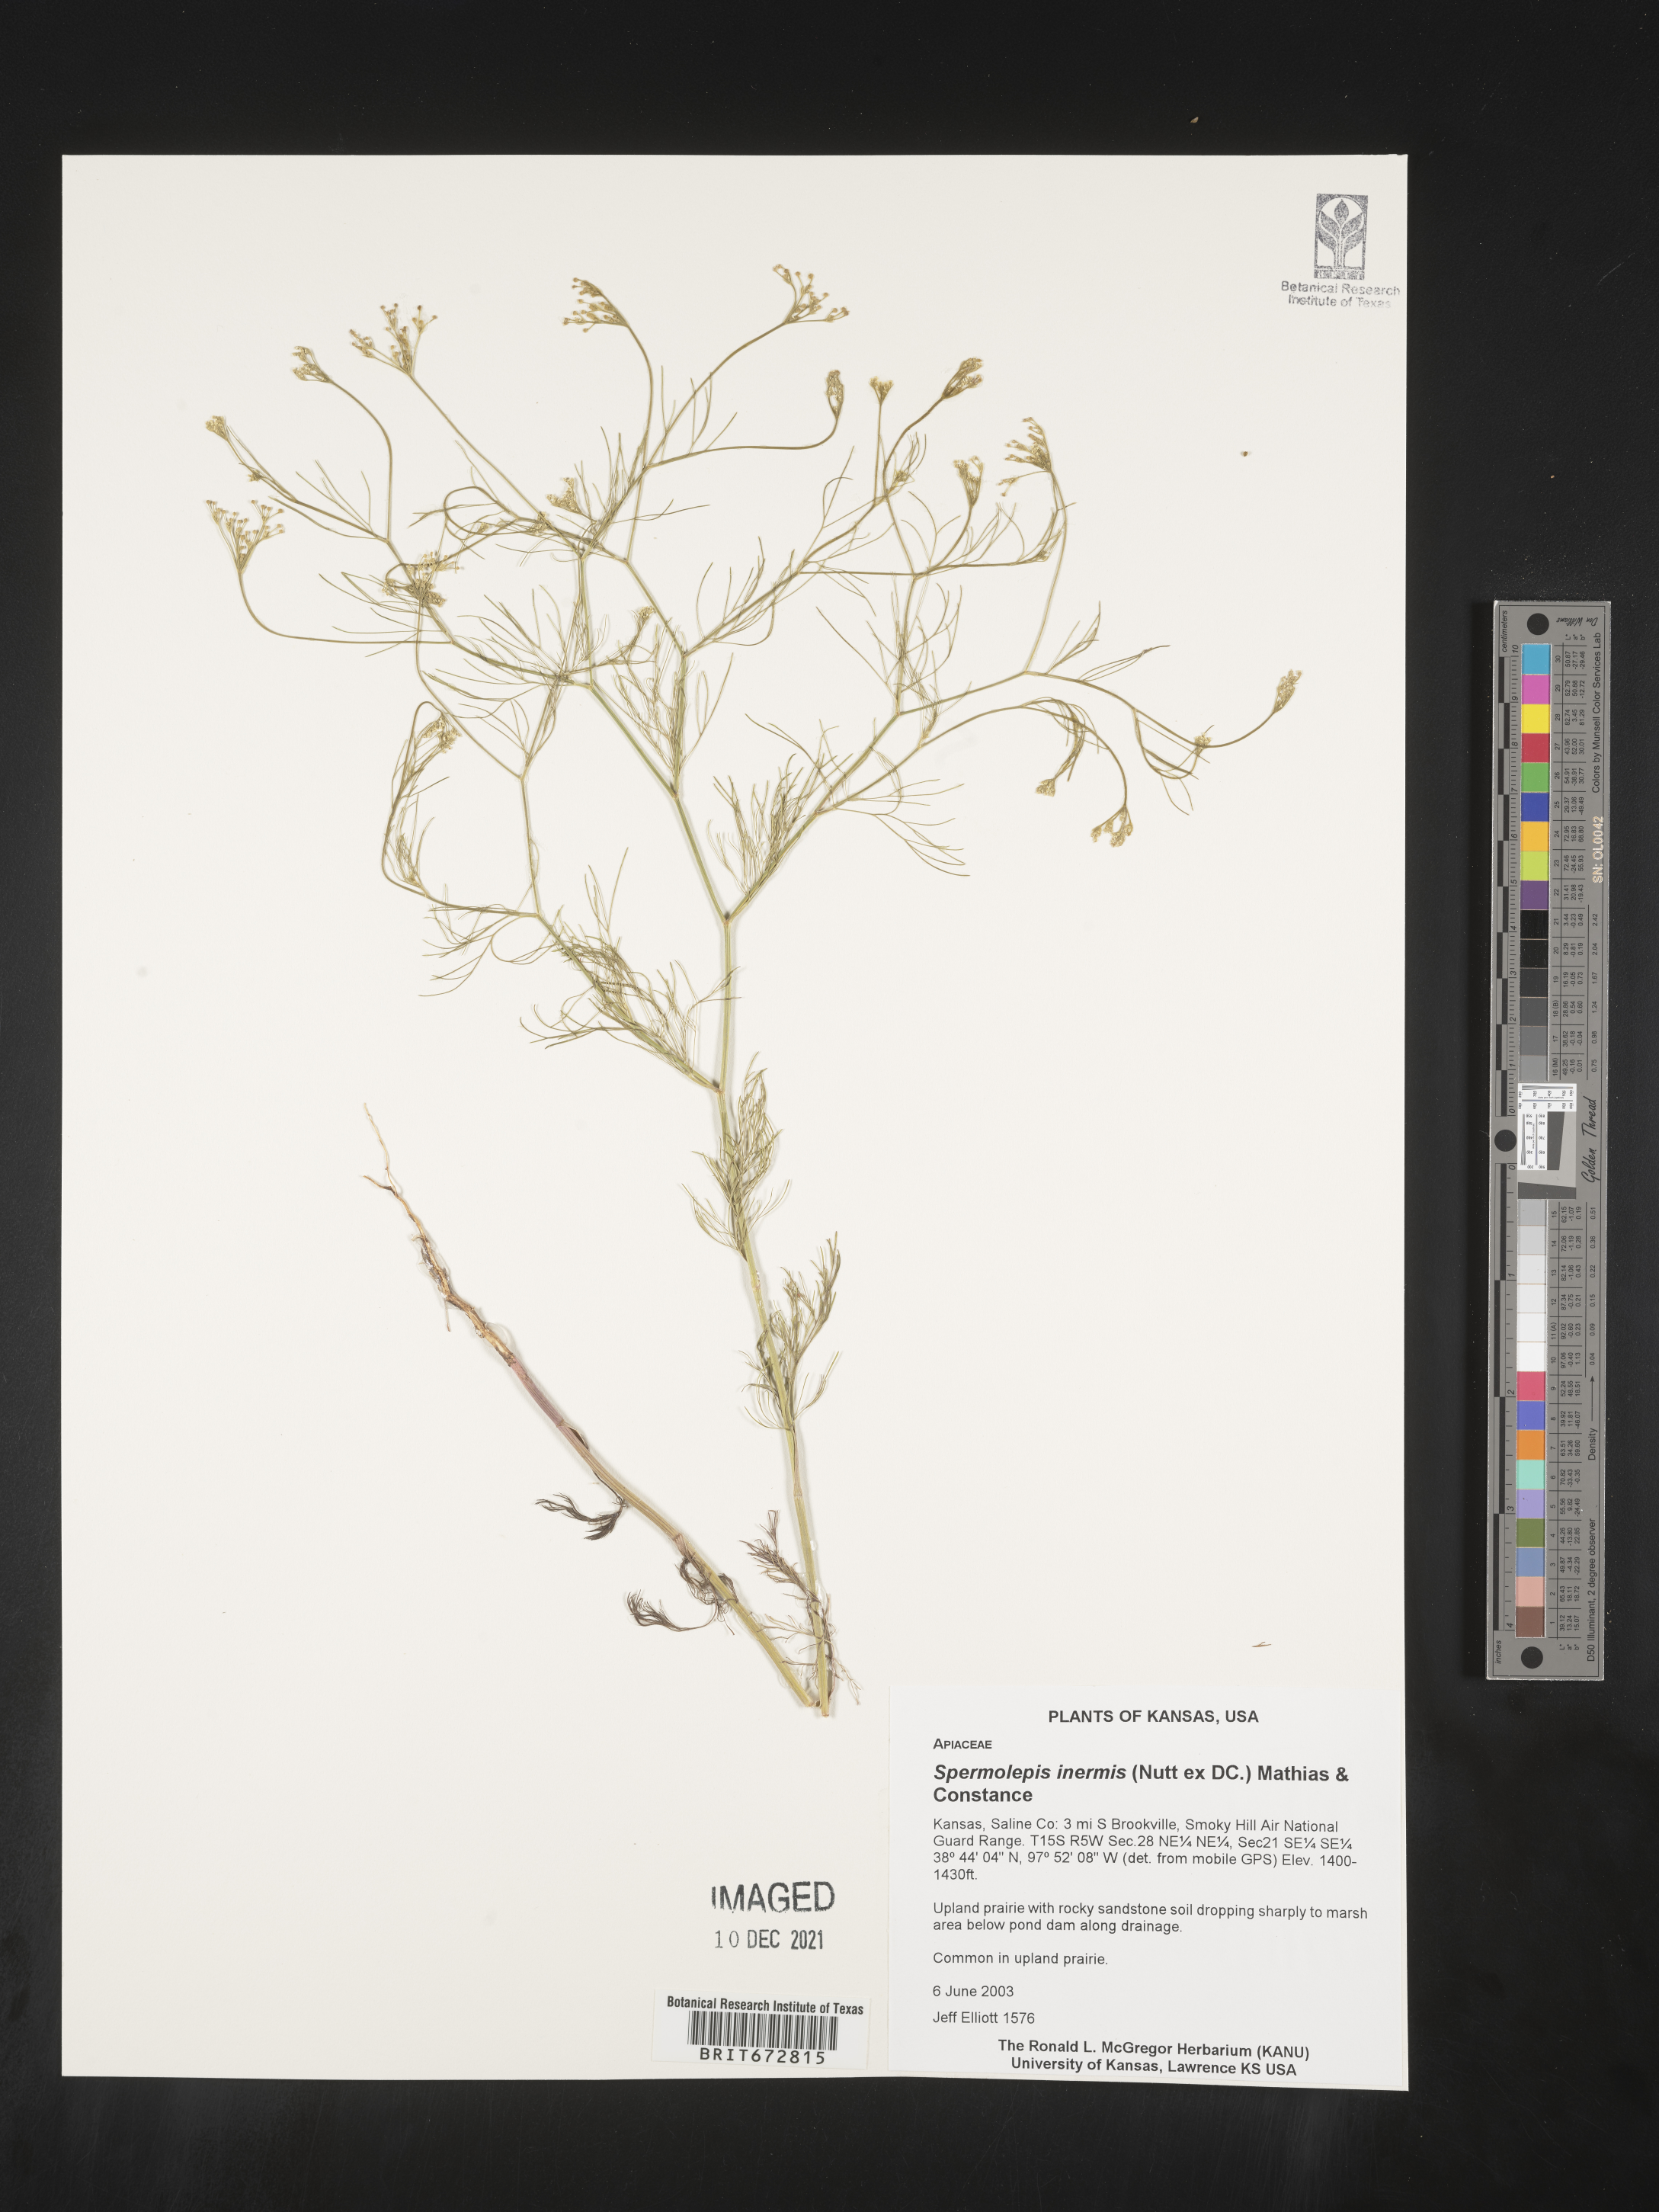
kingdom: Plantae
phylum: Tracheophyta
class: Magnoliopsida
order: Apiales
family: Apiaceae
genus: Spermolepis
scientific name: Spermolepis inermis
